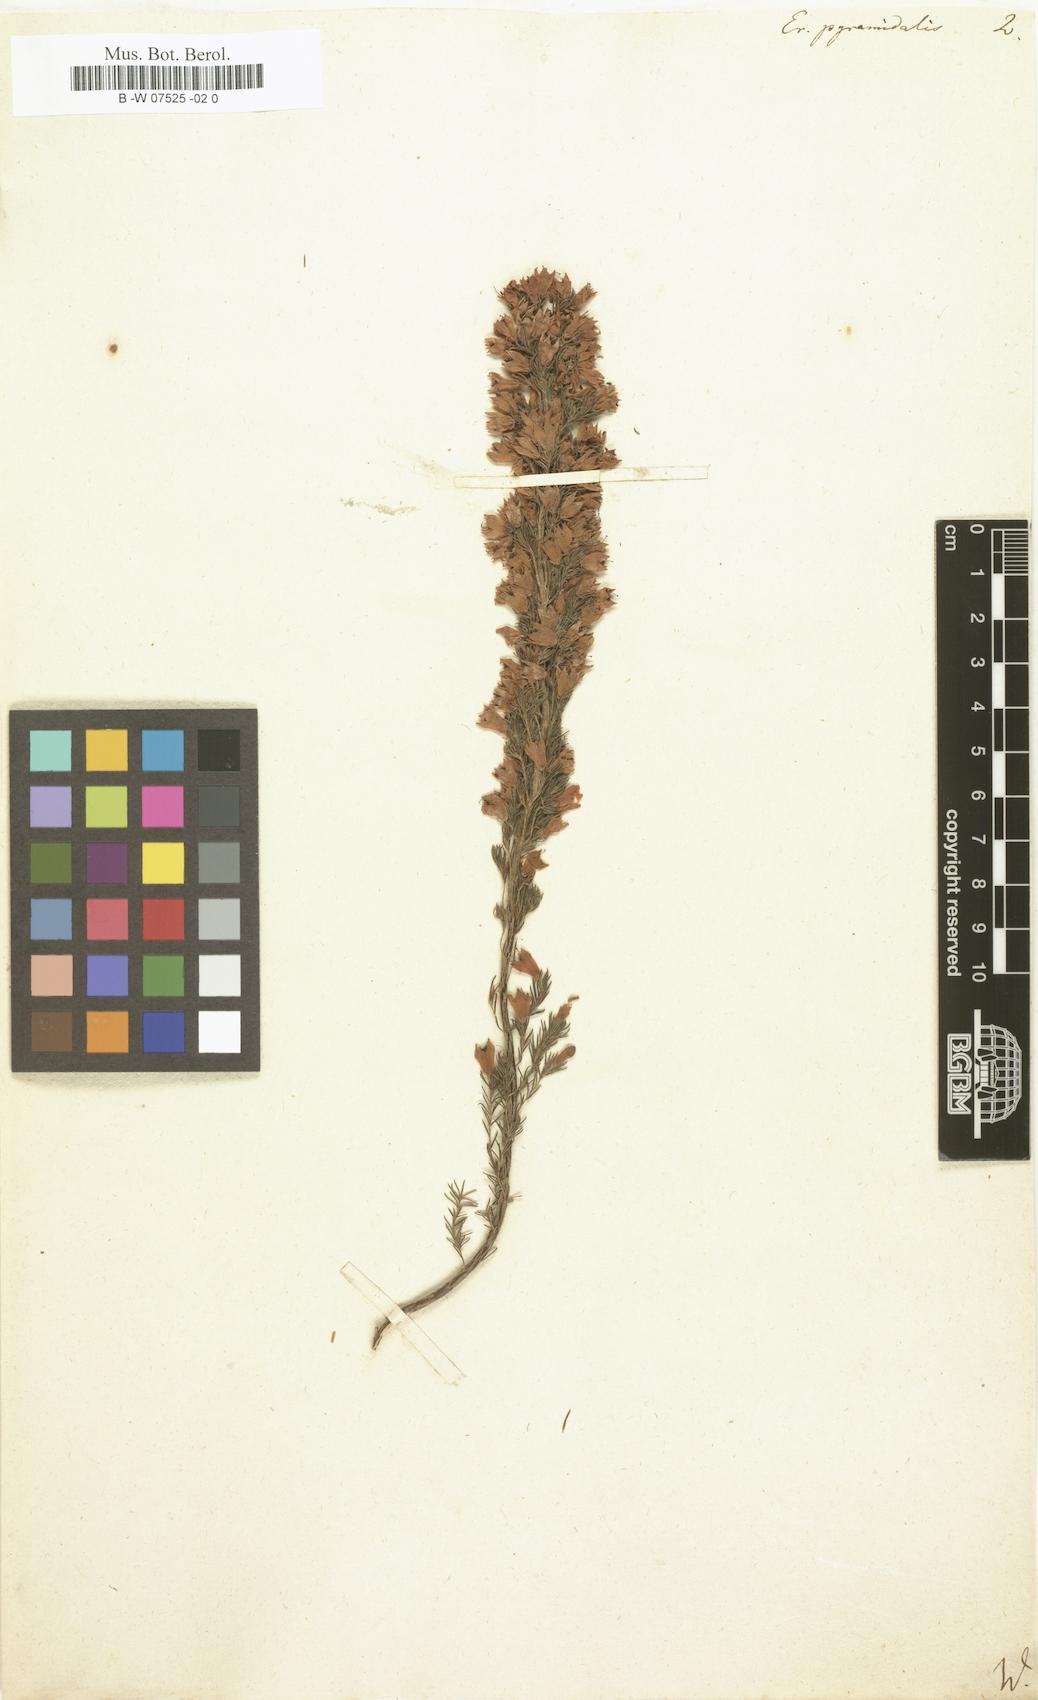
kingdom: Plantae
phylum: Tracheophyta
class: Magnoliopsida
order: Ericales
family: Ericaceae
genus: Erica
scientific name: Erica pyramidalis
